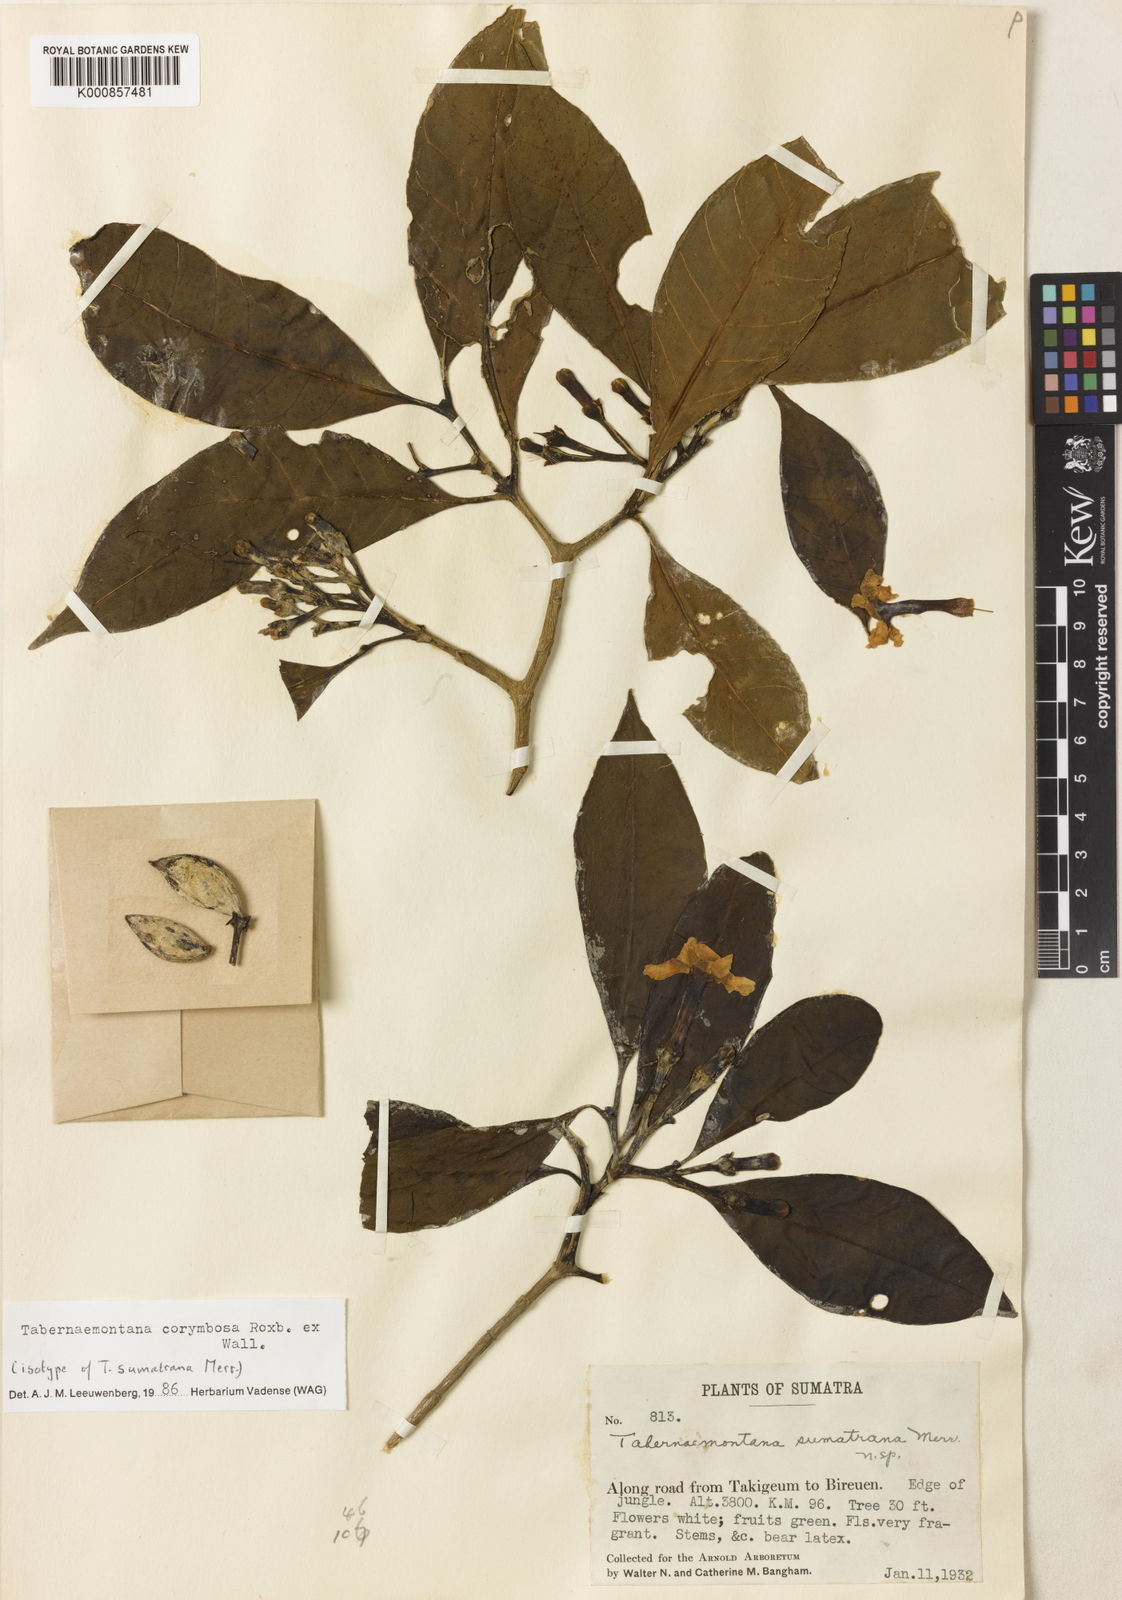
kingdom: Plantae
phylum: Tracheophyta
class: Magnoliopsida
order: Gentianales
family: Apocynaceae
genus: Tabernaemontana
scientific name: Tabernaemontana corymbosa
